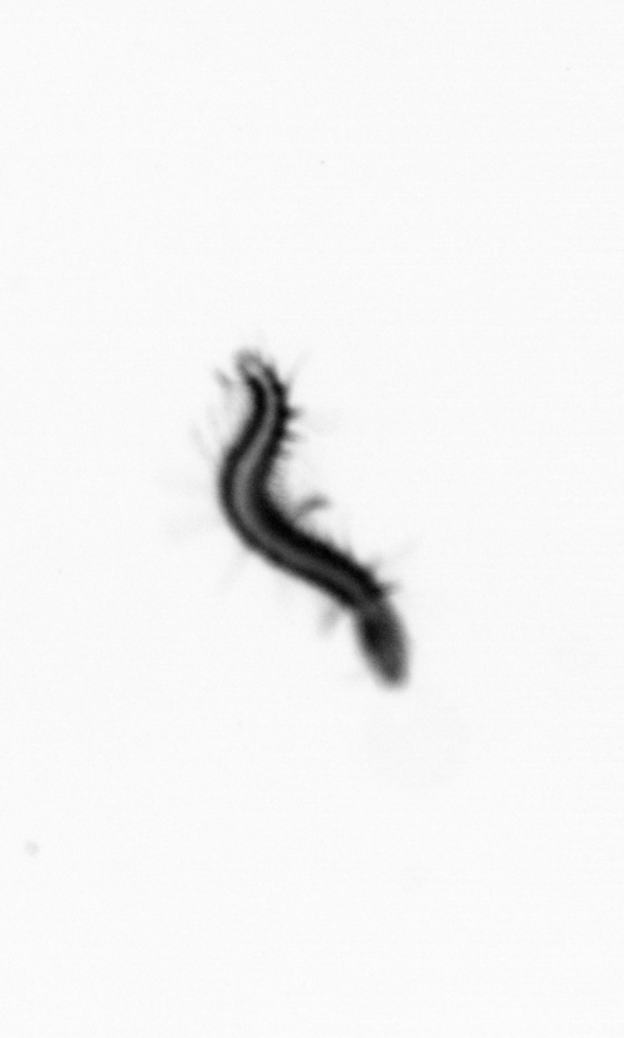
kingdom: Animalia
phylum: Annelida
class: Polychaeta
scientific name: Polychaeta
